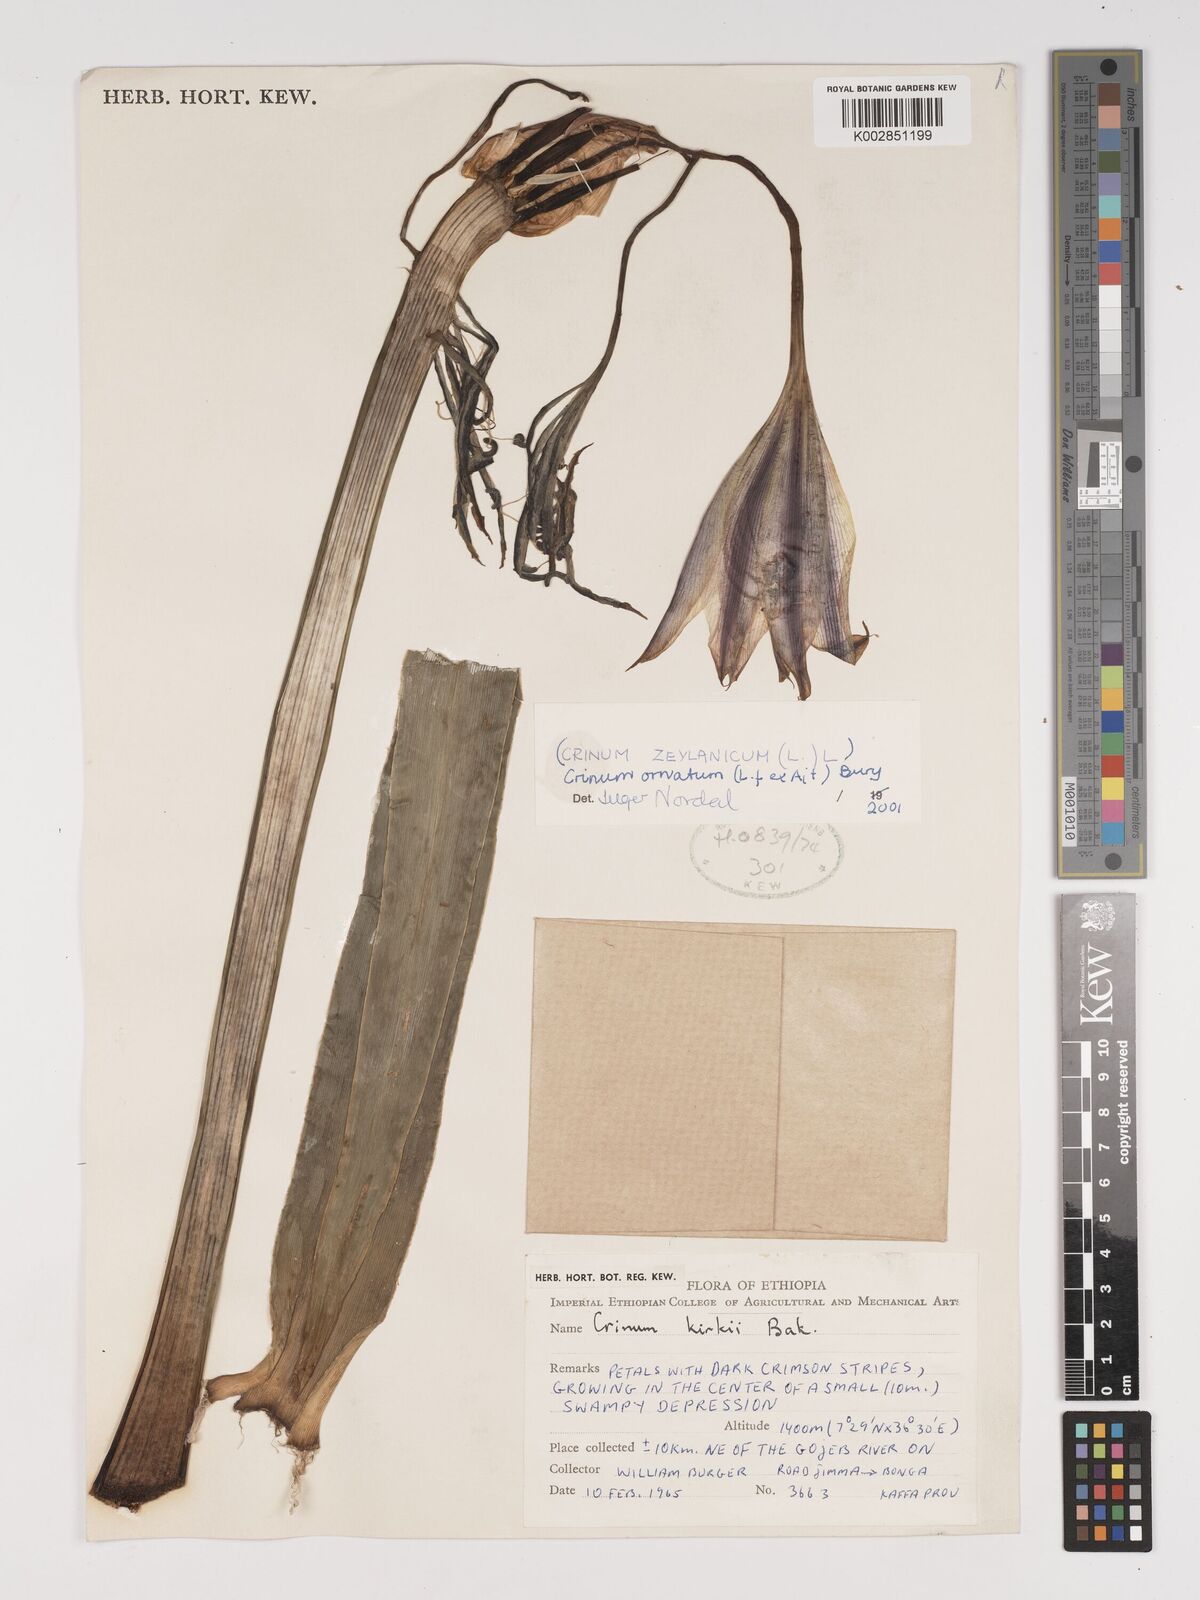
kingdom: Plantae
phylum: Tracheophyta
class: Liliopsida
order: Asparagales
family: Amaryllidaceae
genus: Crinum
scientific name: Crinum zeylanicum
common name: Ceylon swamplily
